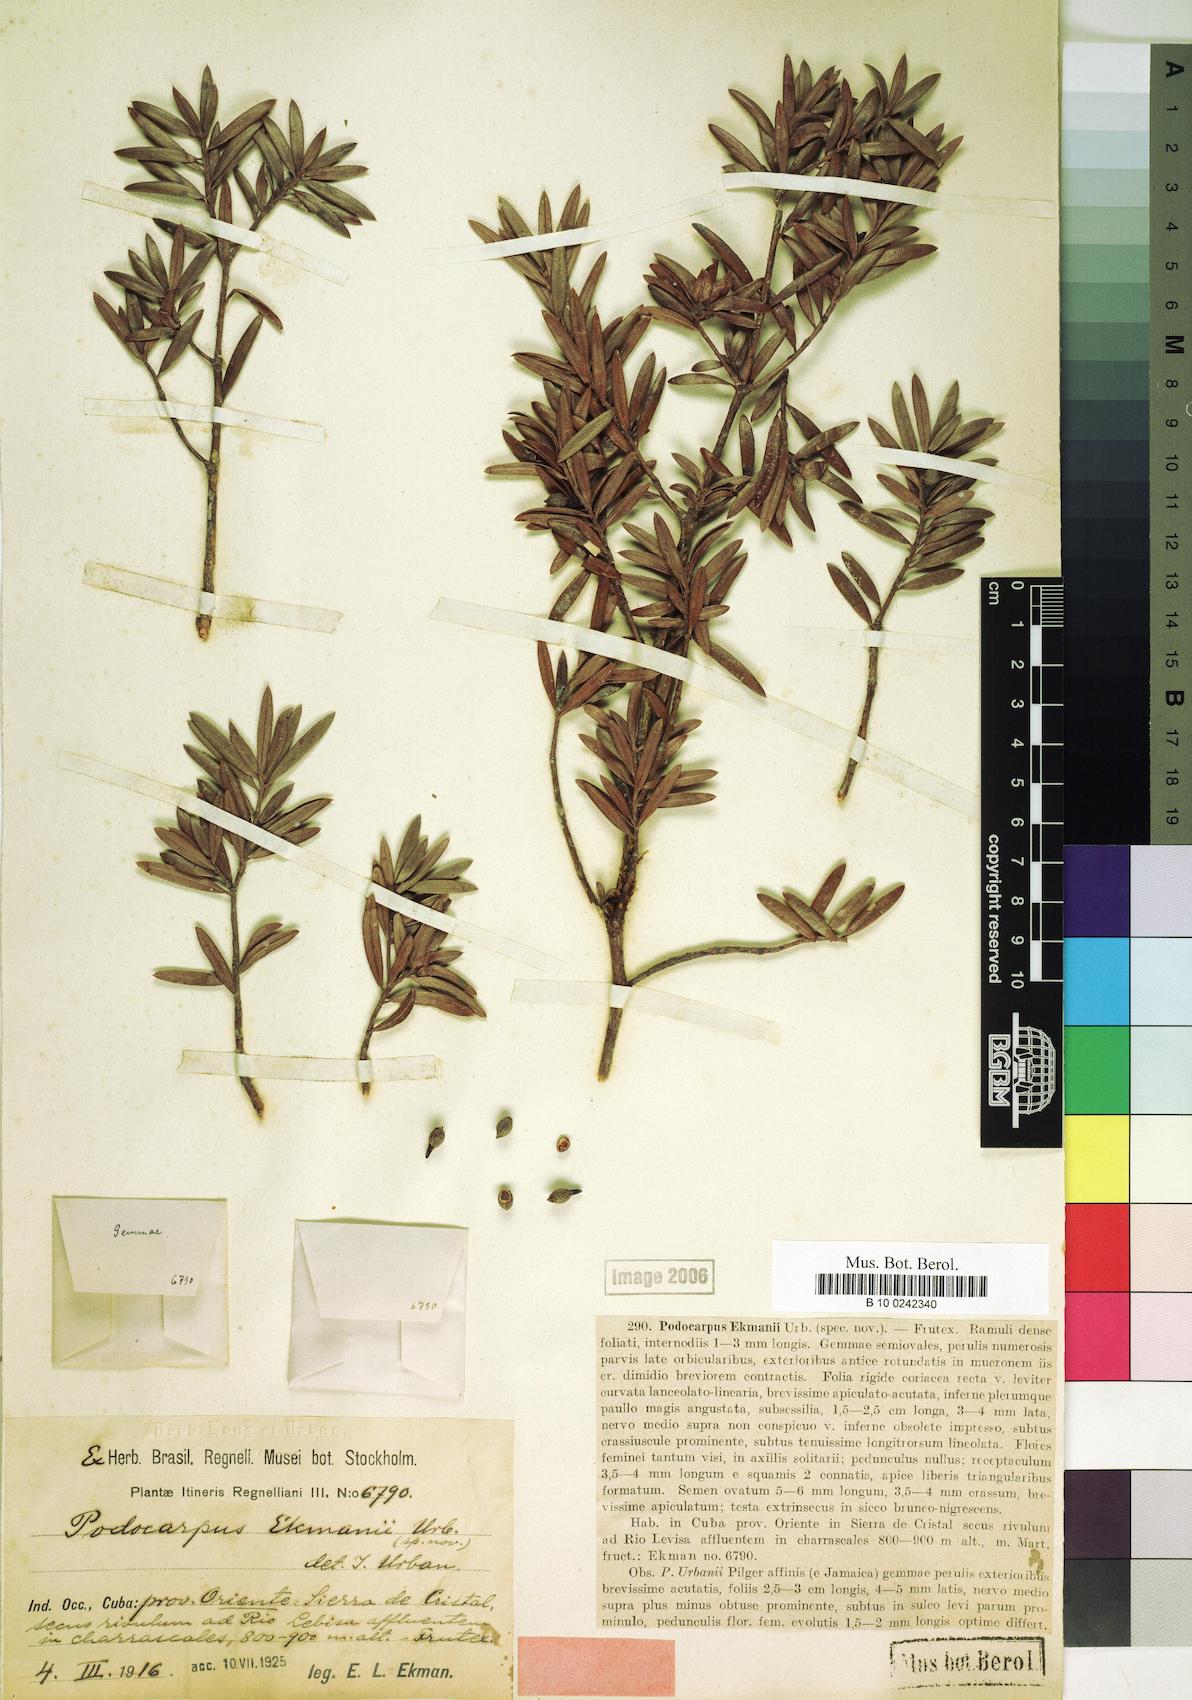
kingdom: Plantae
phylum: Tracheophyta
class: Pinopsida
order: Pinales
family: Podocarpaceae
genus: Podocarpus
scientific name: Podocarpus ekmanii
